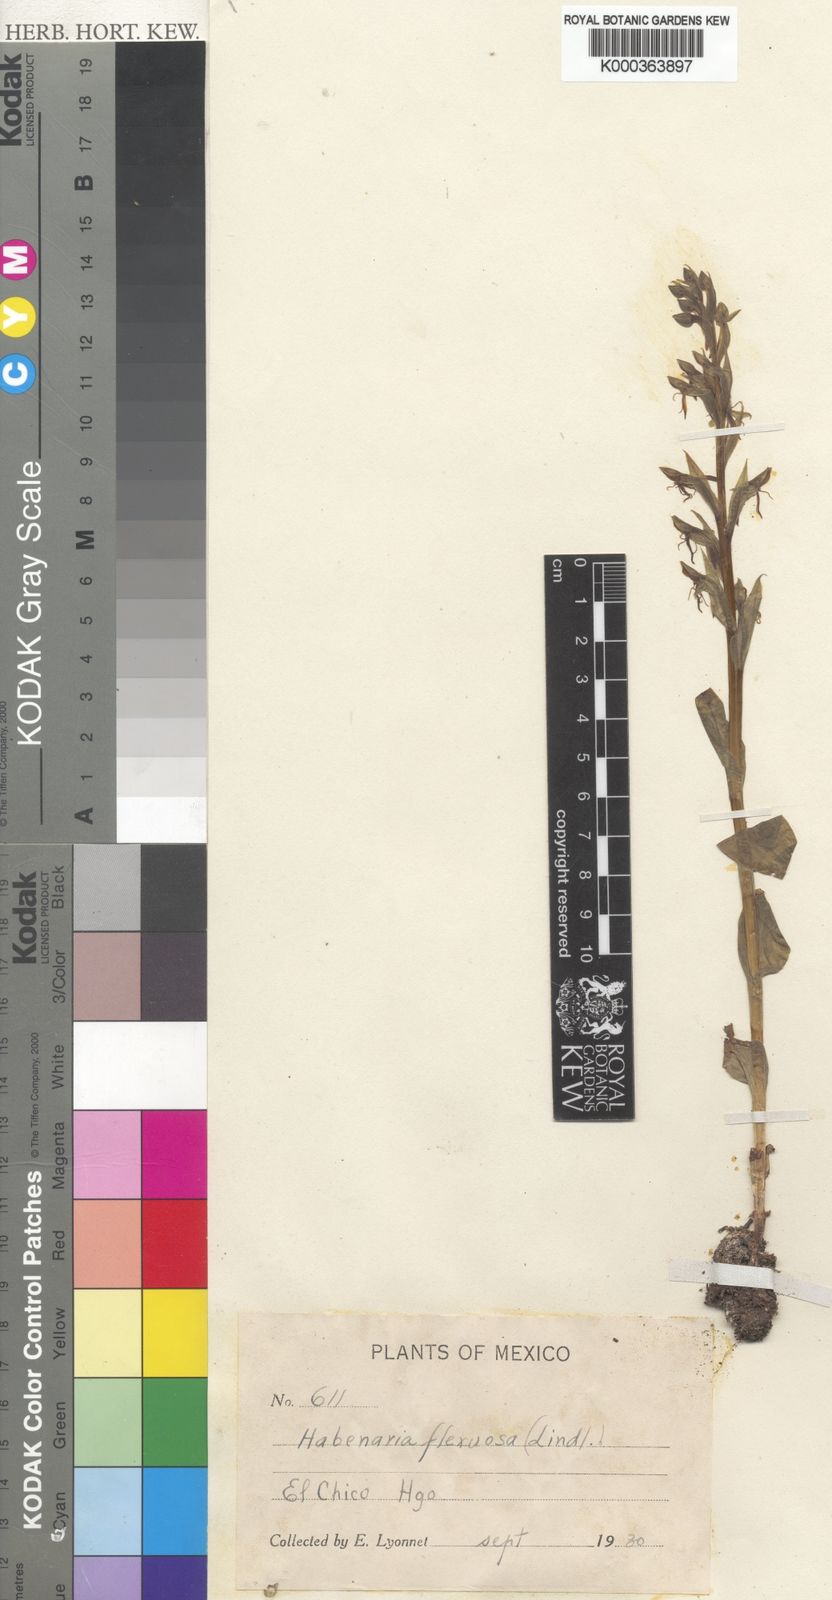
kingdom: Plantae
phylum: Tracheophyta
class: Liliopsida
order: Asparagales
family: Orchidaceae
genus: Habenaria
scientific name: Habenaria flexuosa
